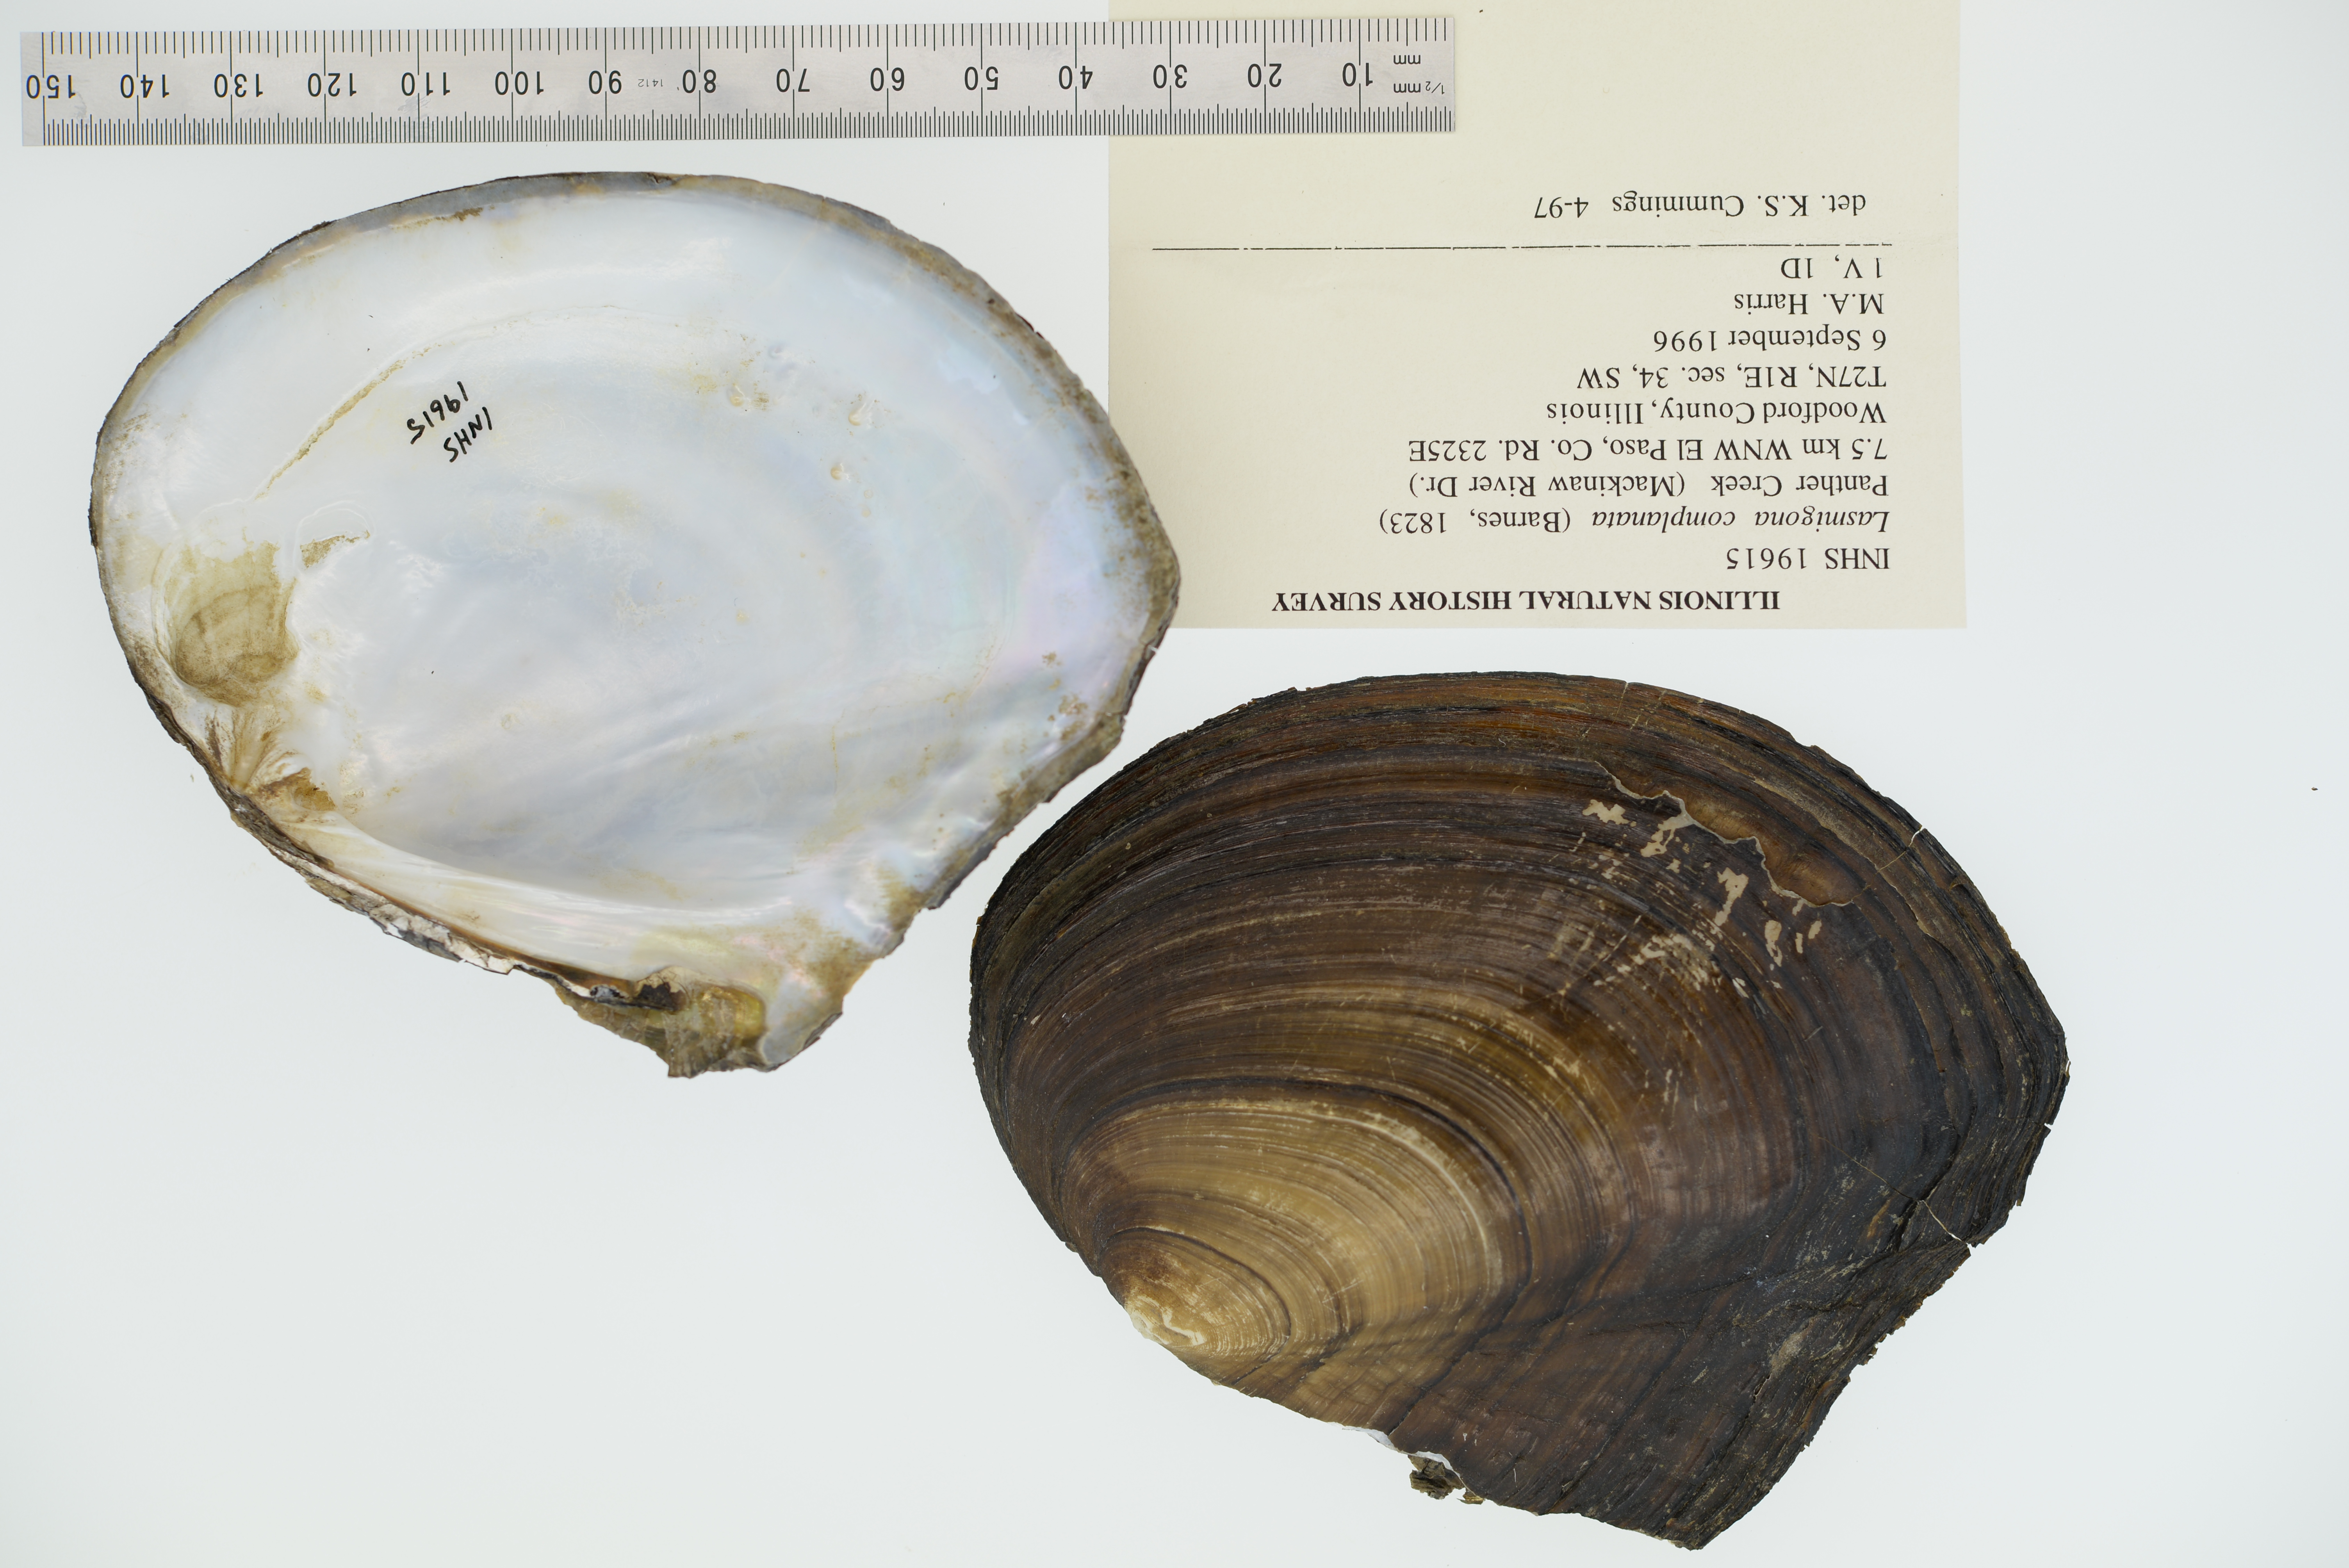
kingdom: Animalia
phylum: Mollusca
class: Bivalvia
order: Unionida
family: Unionidae
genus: Lasmigona
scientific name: Lasmigona complanata
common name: White heelsplitter
